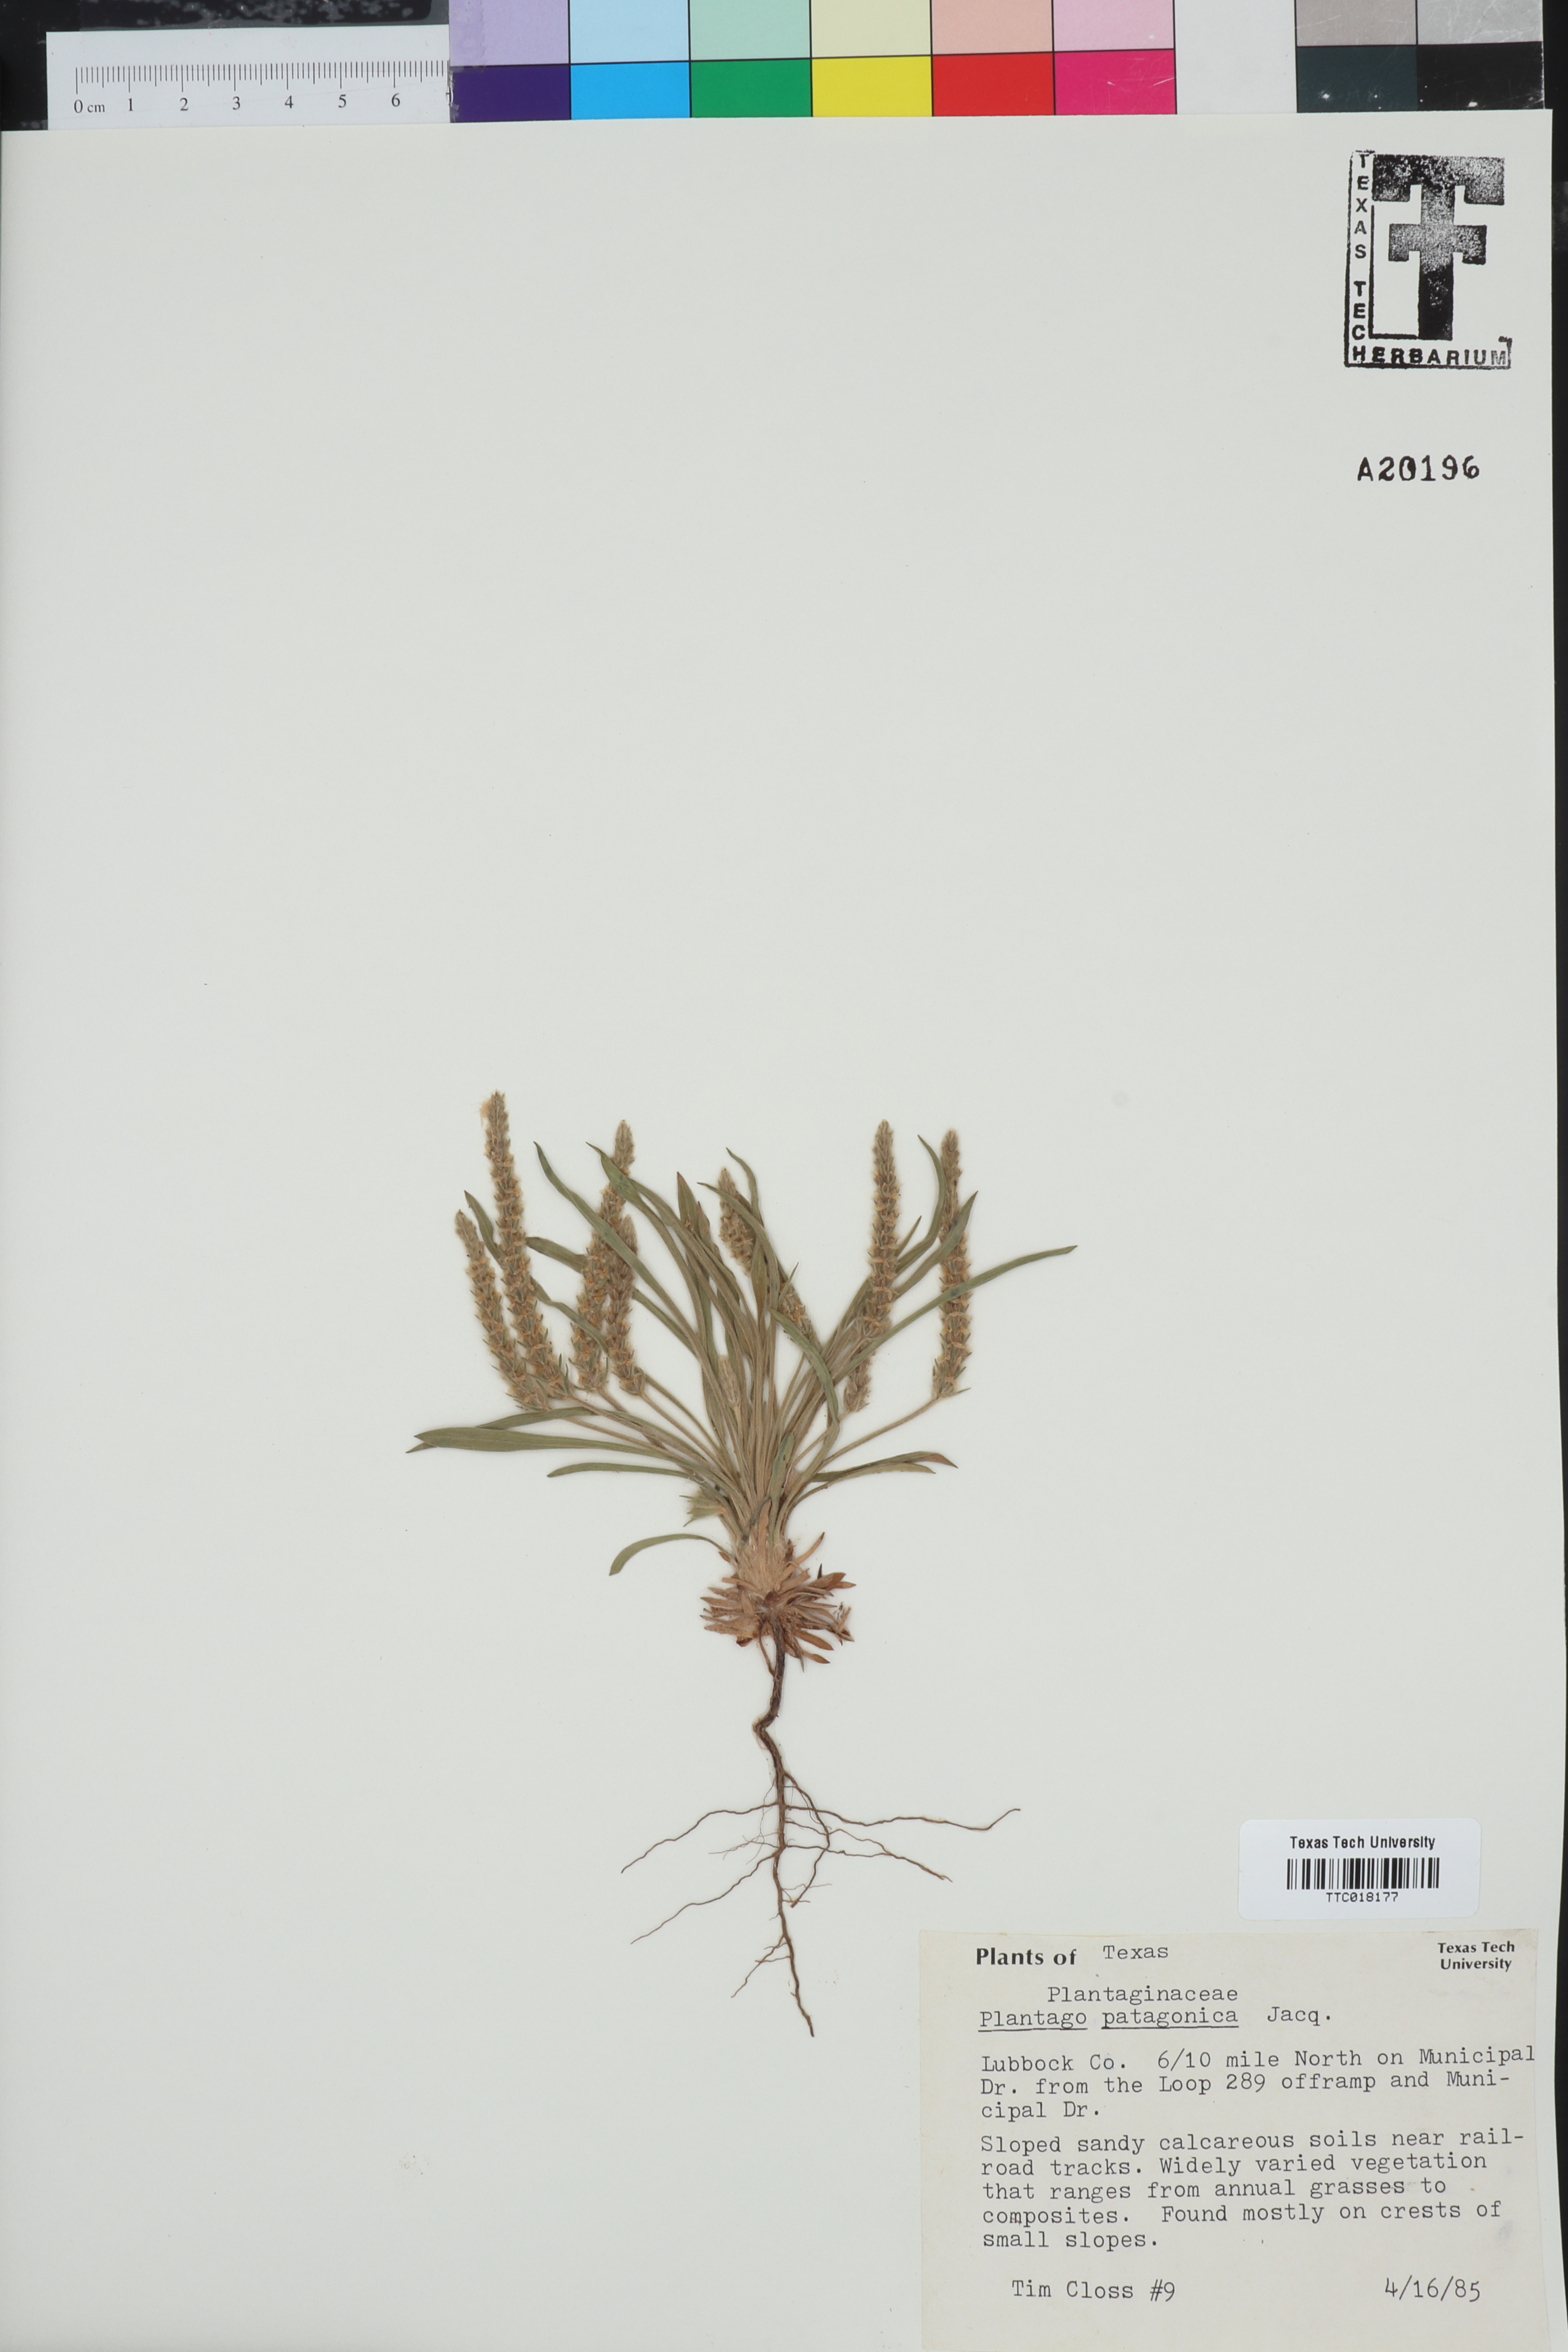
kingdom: Plantae
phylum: Tracheophyta
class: Magnoliopsida
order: Lamiales
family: Plantaginaceae
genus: Plantago
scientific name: Plantago patagonica
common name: Patagonia indian-wheat
